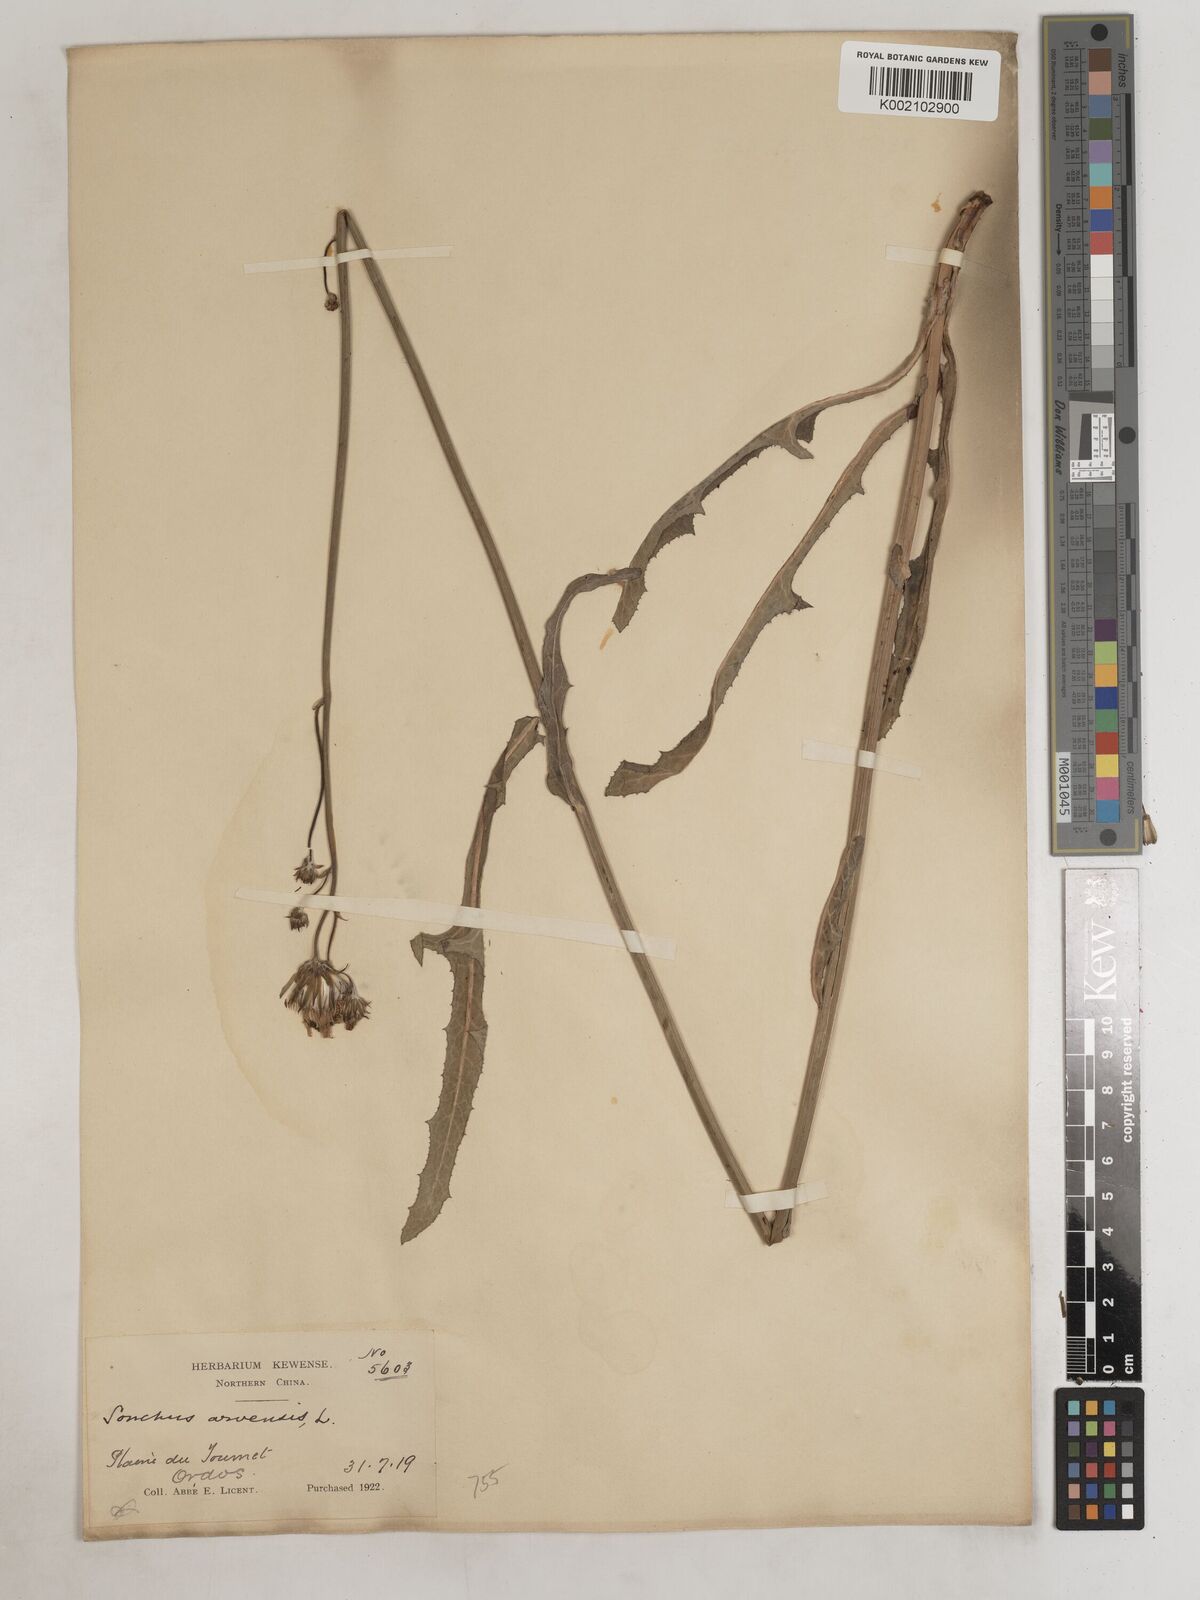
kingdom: Plantae
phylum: Tracheophyta
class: Magnoliopsida
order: Asterales
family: Asteraceae
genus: Sonchus
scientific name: Sonchus wightianus
